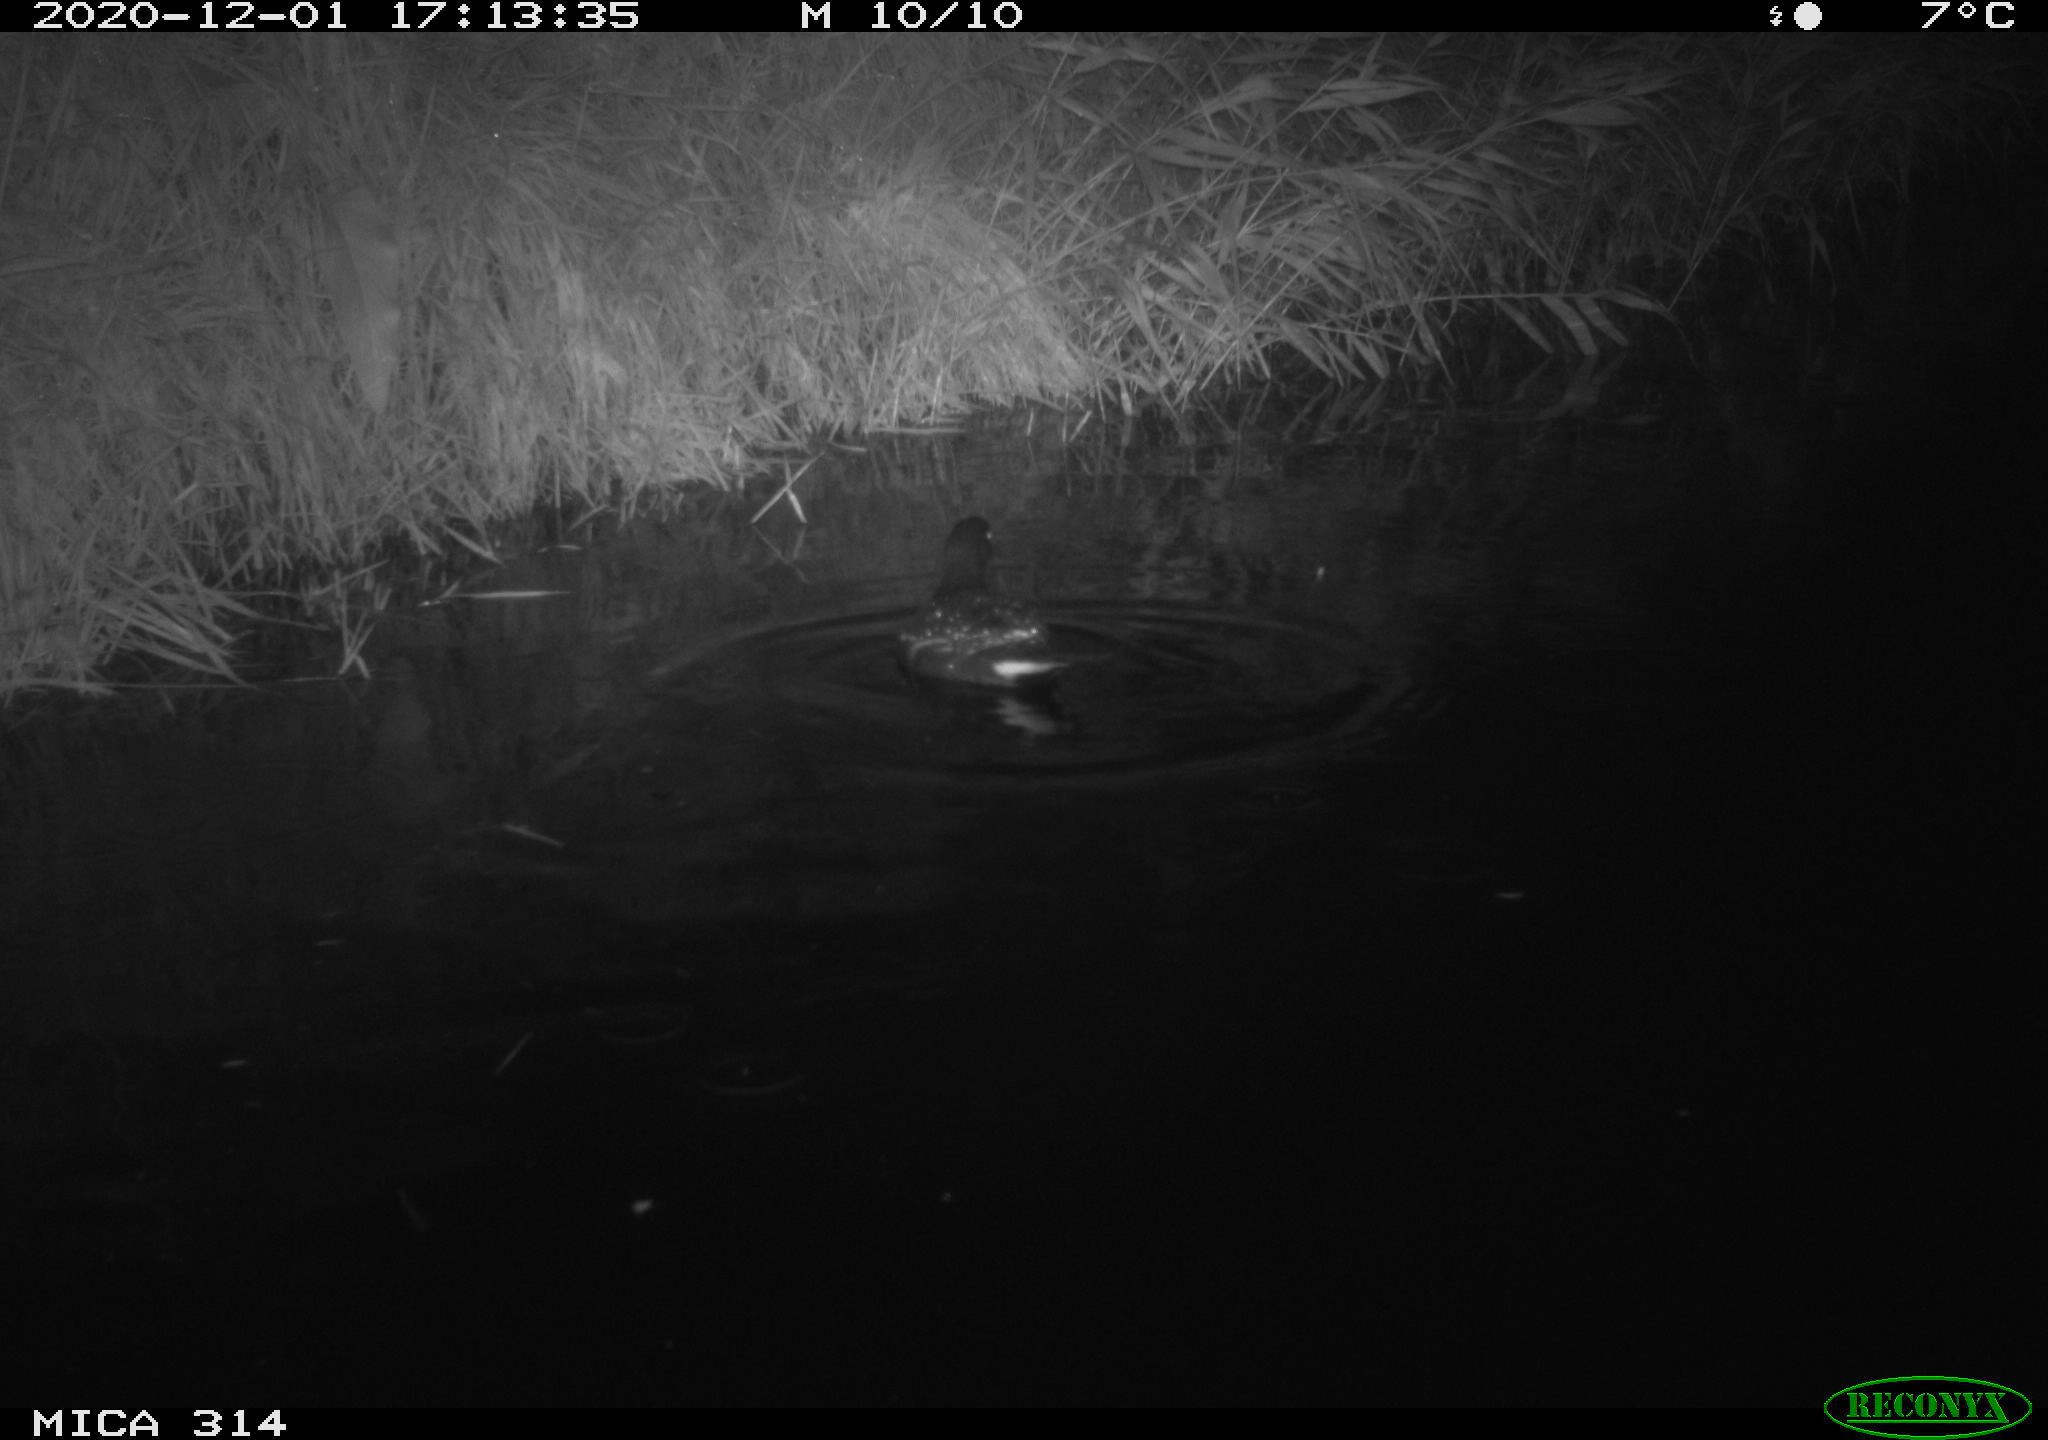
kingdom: Animalia
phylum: Chordata
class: Aves
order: Gruiformes
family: Rallidae
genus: Gallinula
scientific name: Gallinula chloropus
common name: Common moorhen
